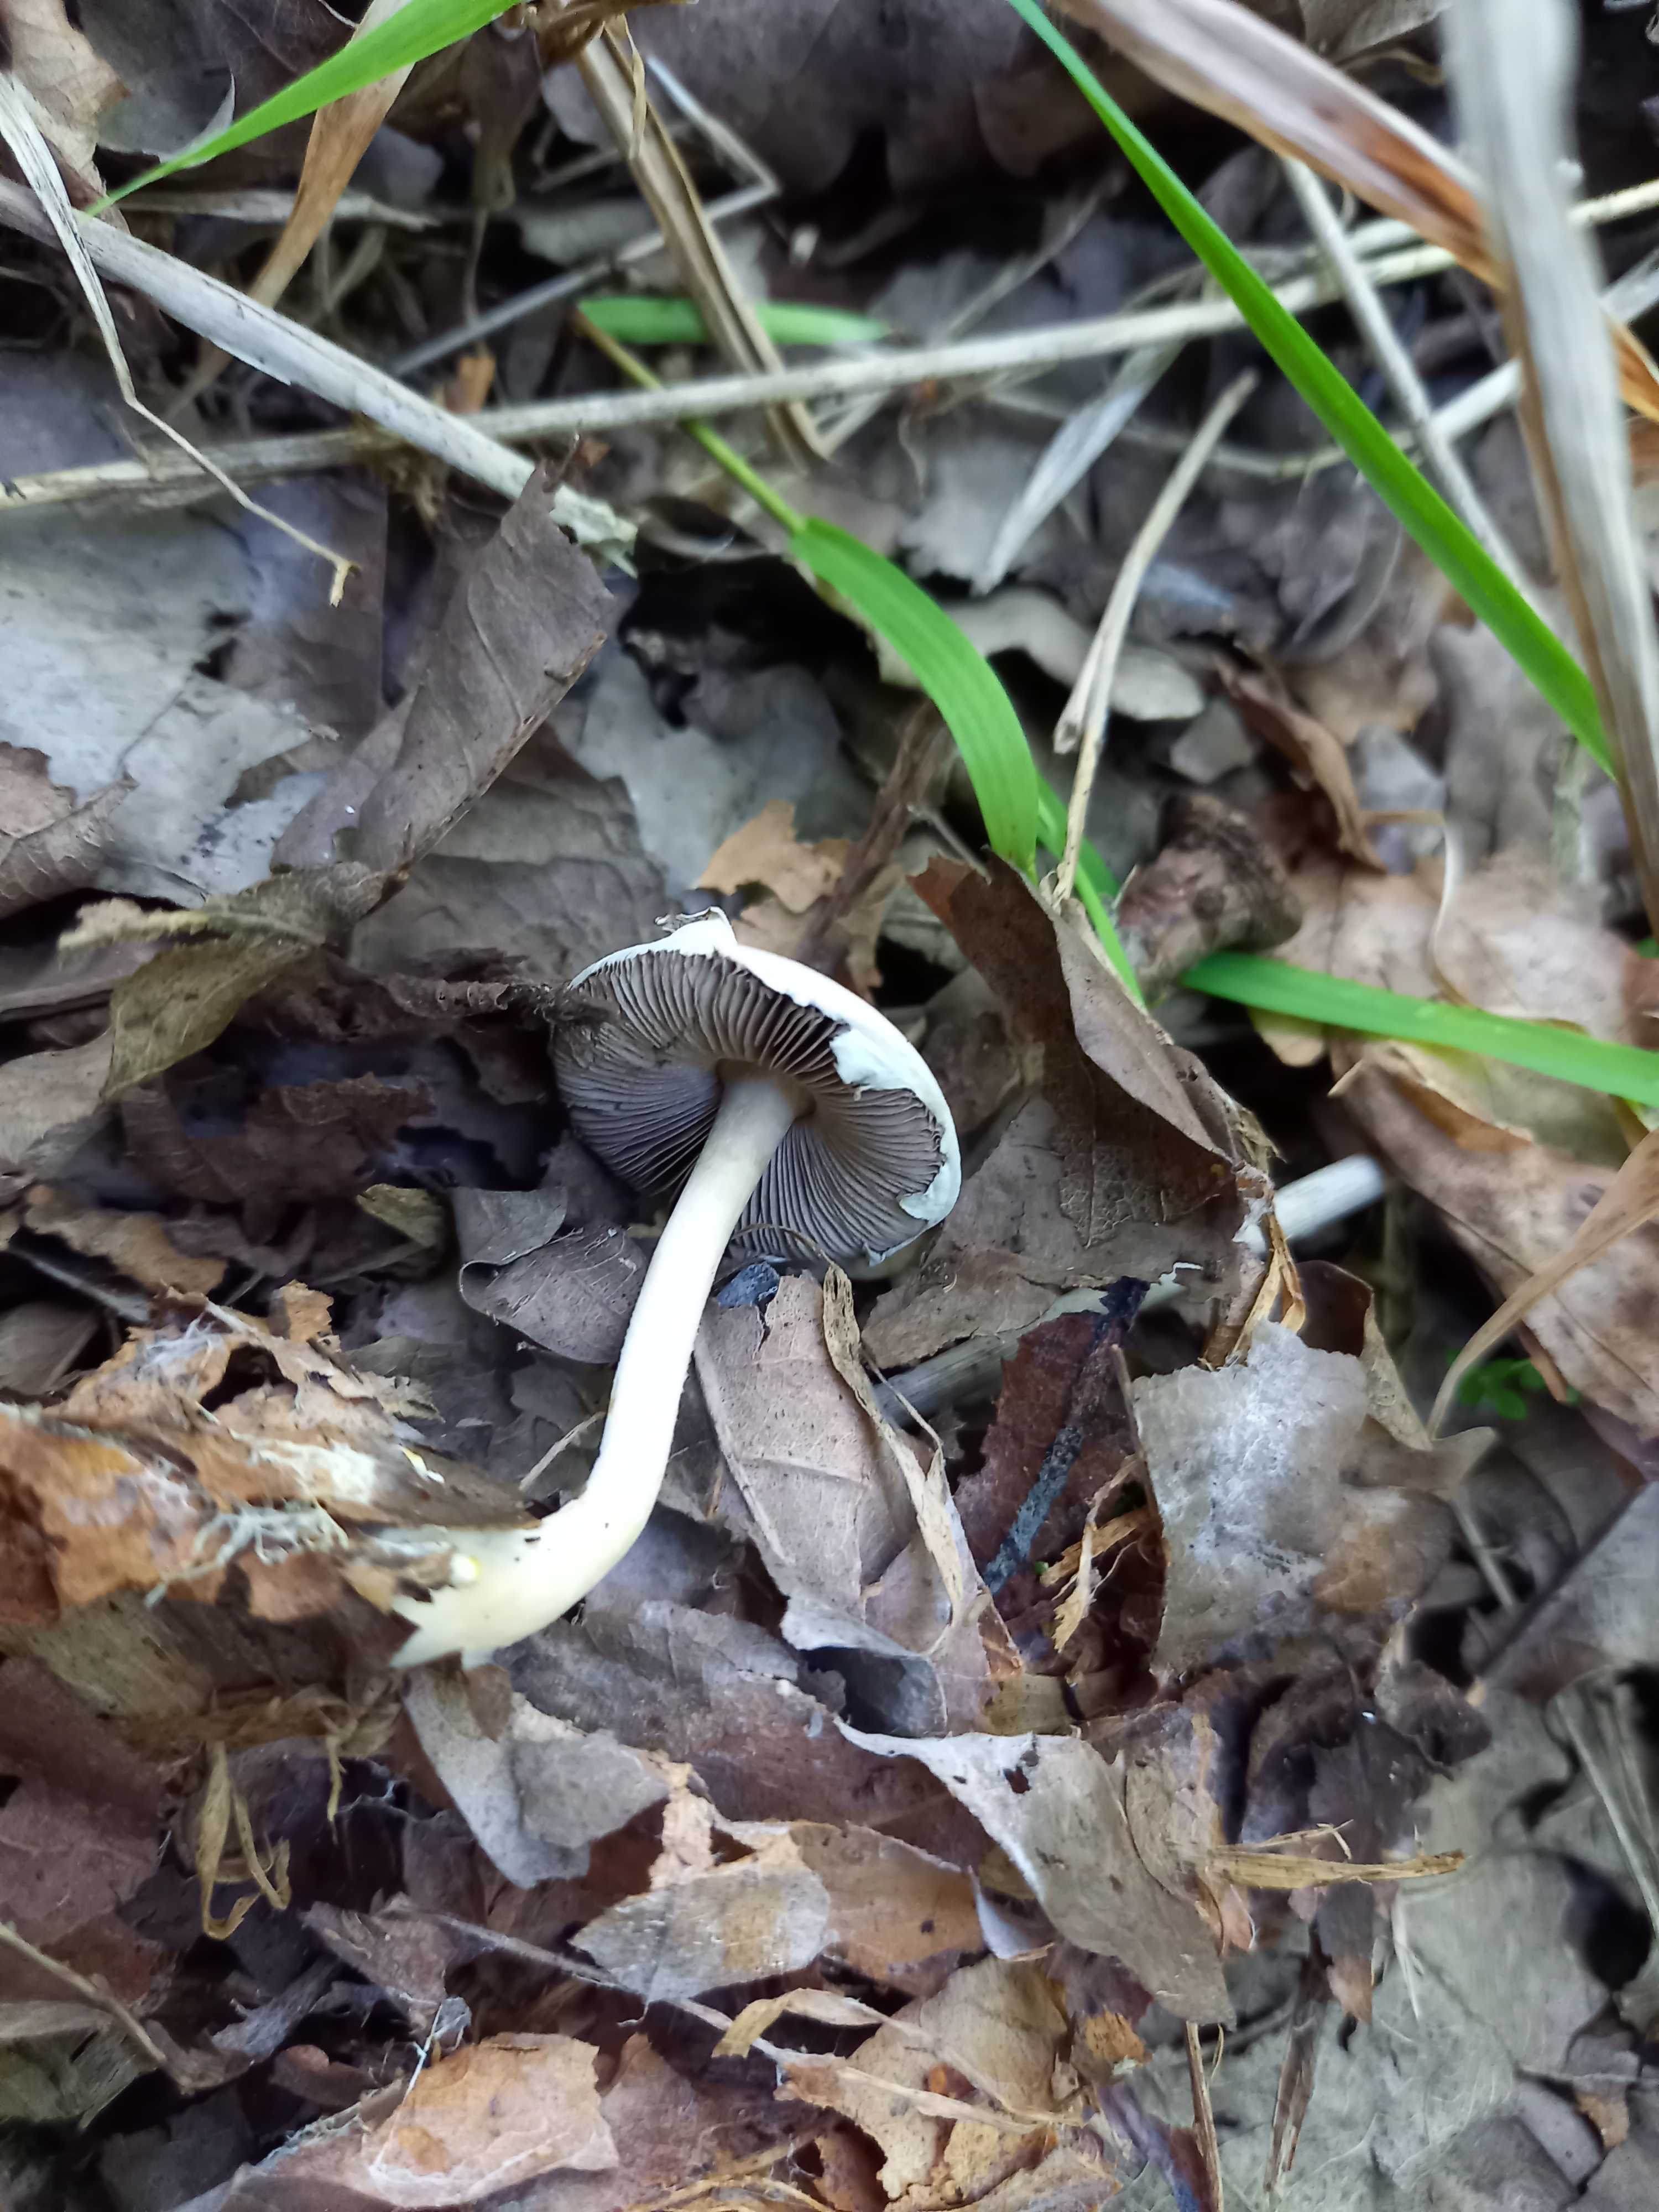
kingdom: Fungi
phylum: Basidiomycota
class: Agaricomycetes
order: Agaricales
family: Agaricaceae
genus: Agaricus
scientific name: Agaricus dulcidulus
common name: blegrød champignon
